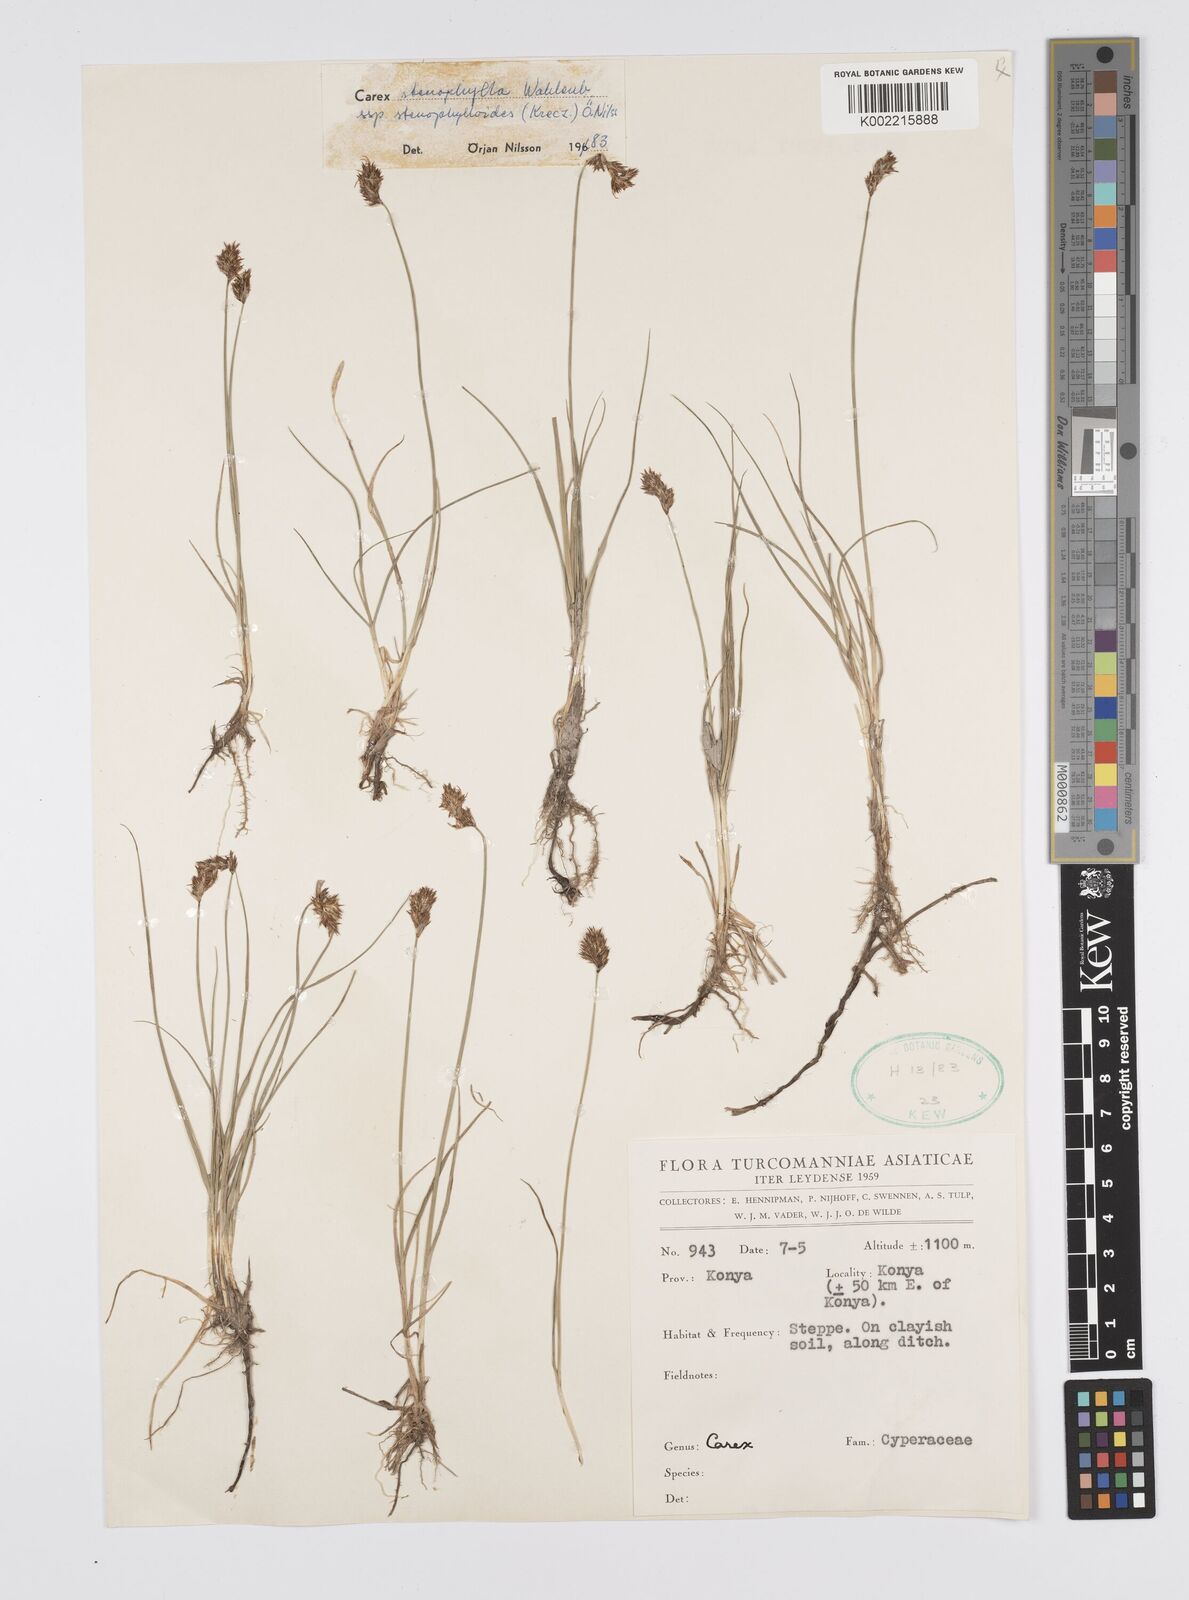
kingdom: Plantae
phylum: Tracheophyta
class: Liliopsida
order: Poales
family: Cyperaceae
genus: Carex
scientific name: Carex stenophylla
